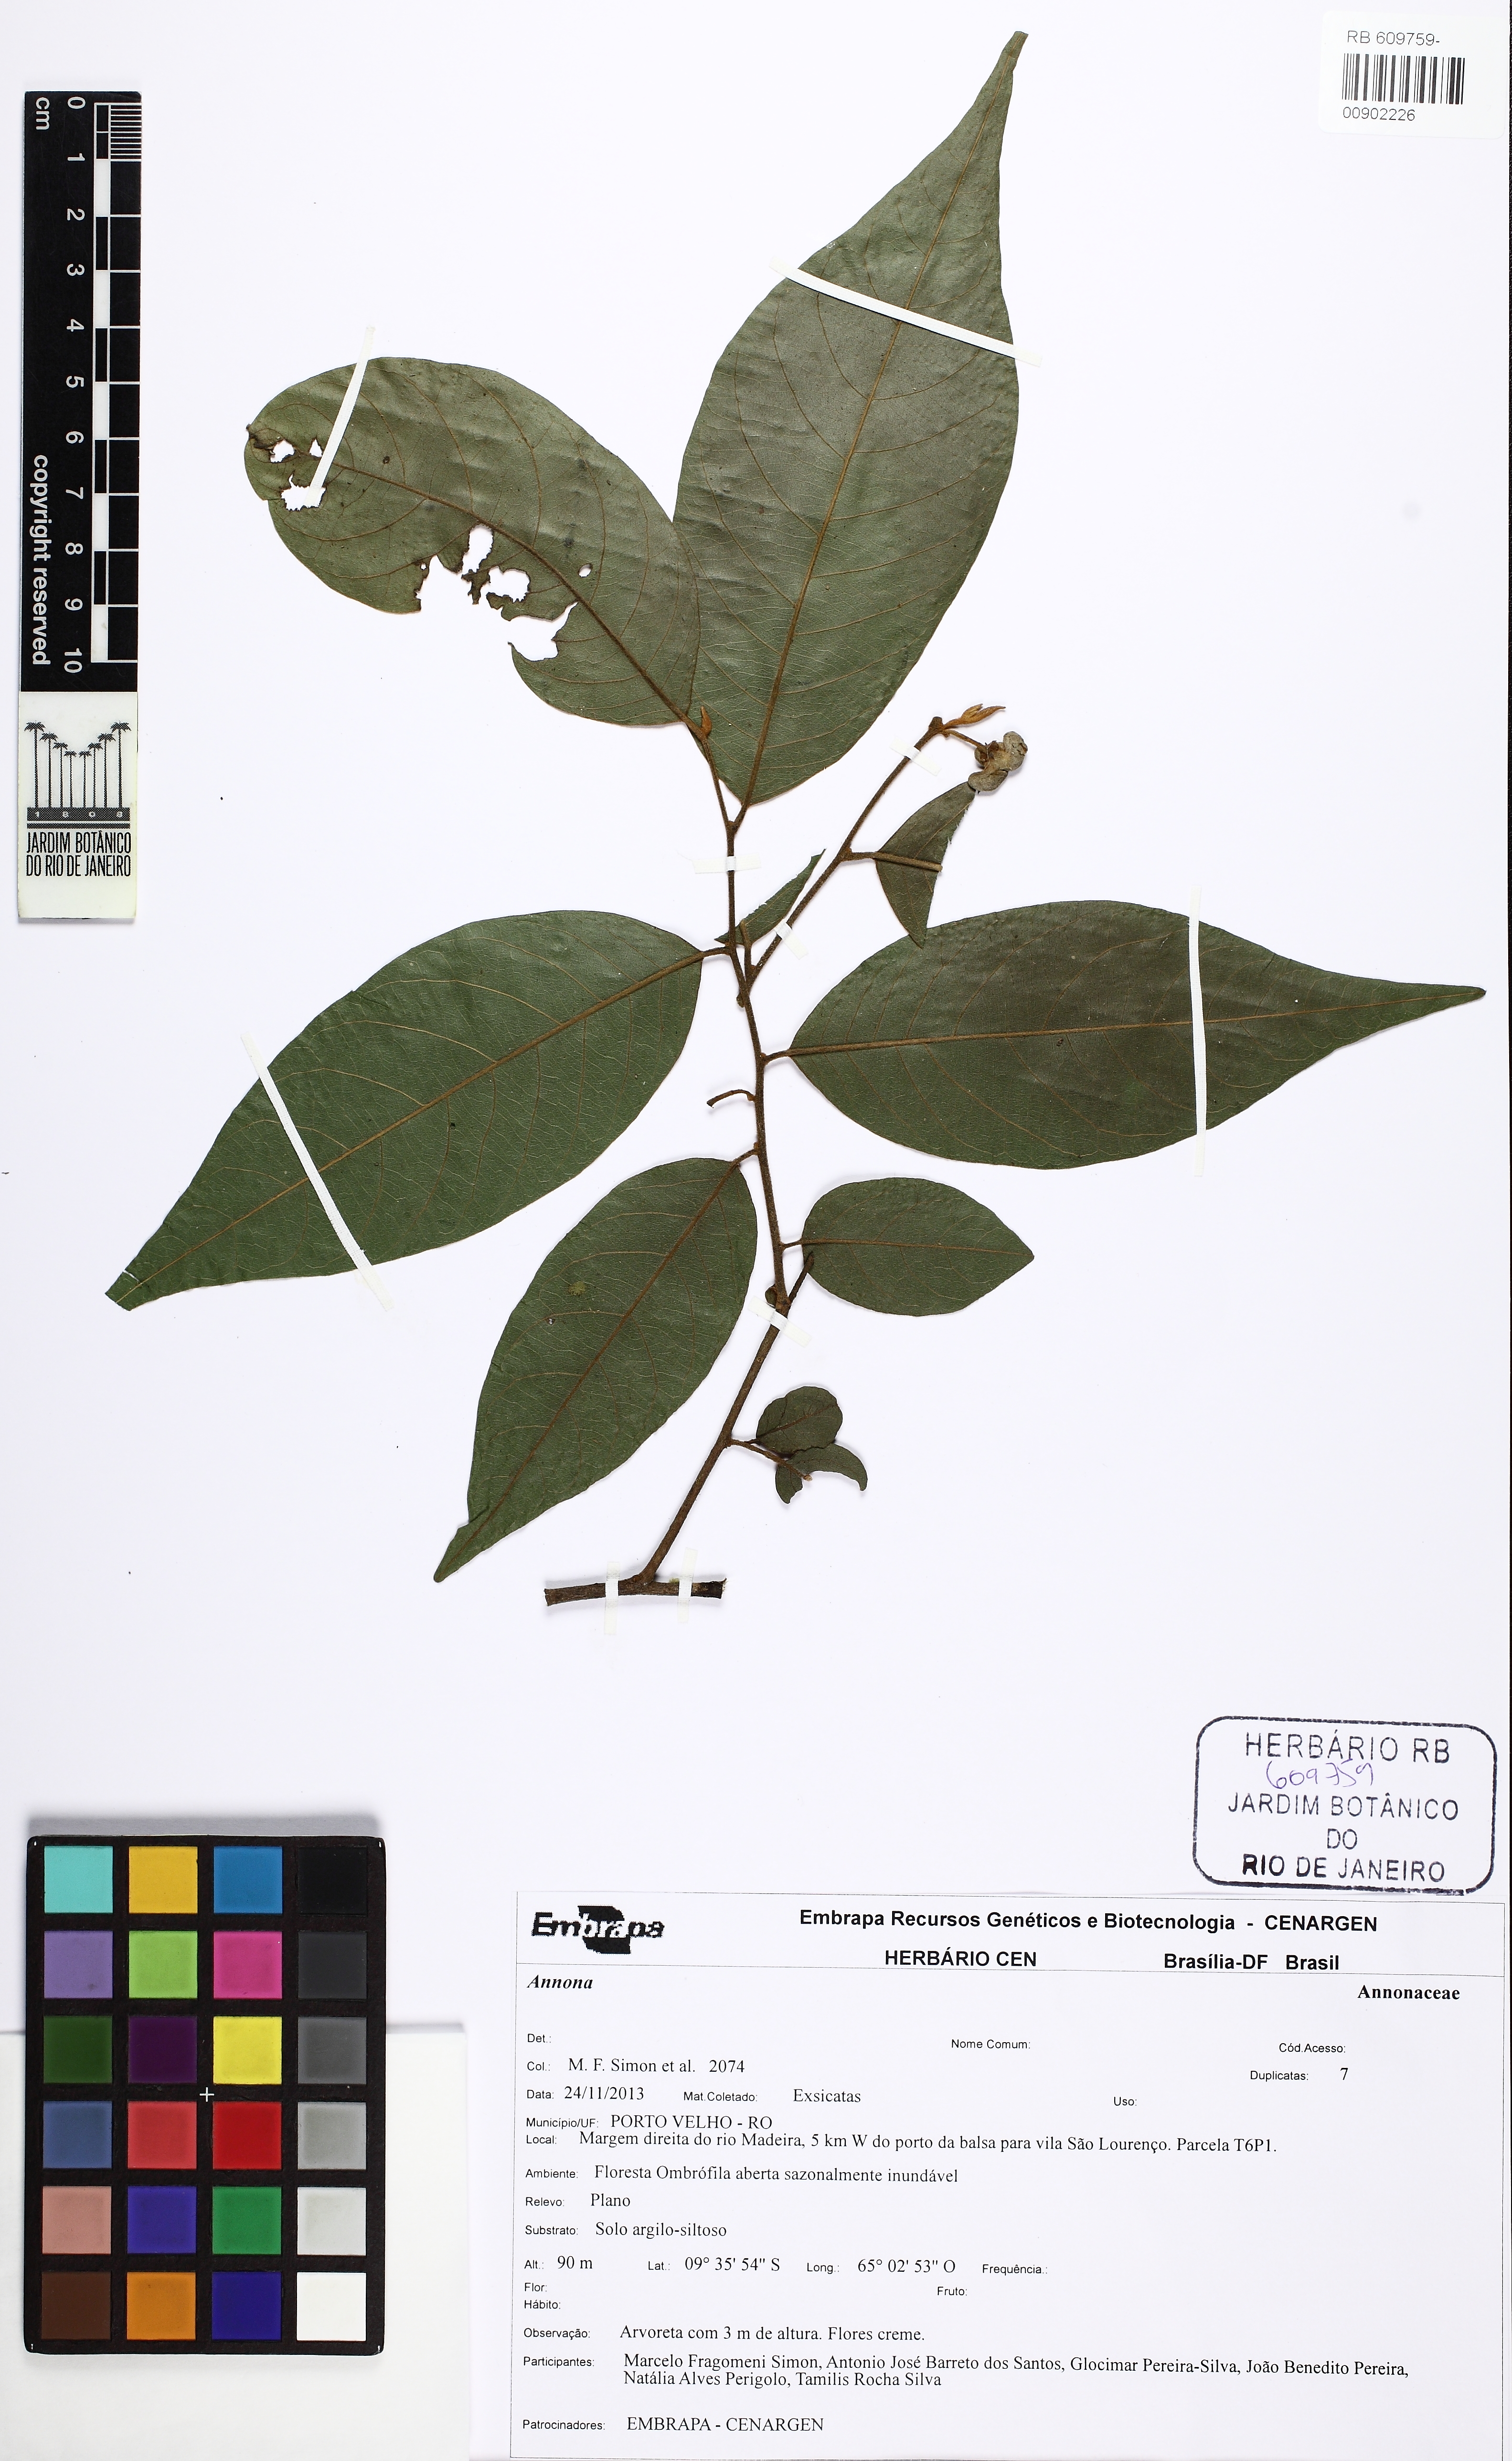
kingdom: Plantae
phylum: Tracheophyta
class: Magnoliopsida
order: Magnoliales
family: Annonaceae
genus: Annona
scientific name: Annona
